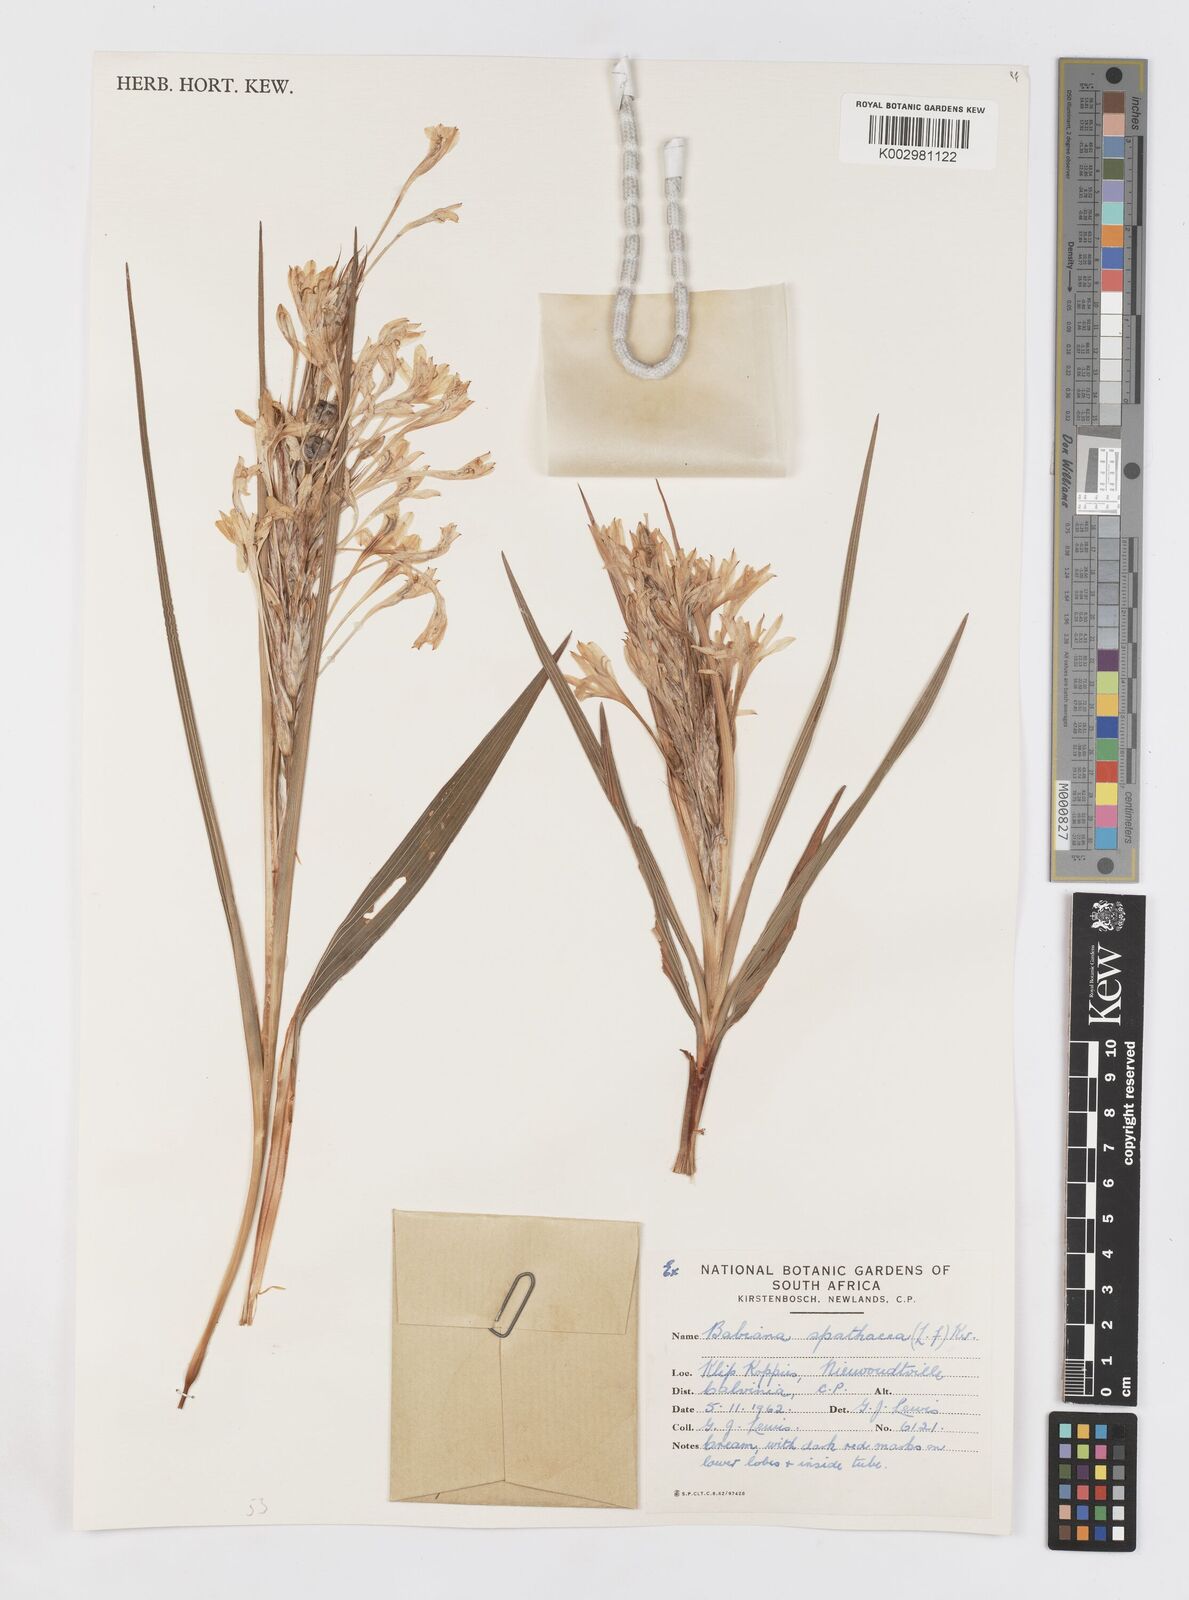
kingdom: Plantae
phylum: Tracheophyta
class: Liliopsida
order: Asparagales
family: Iridaceae
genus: Babiana
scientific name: Babiana spathacea
